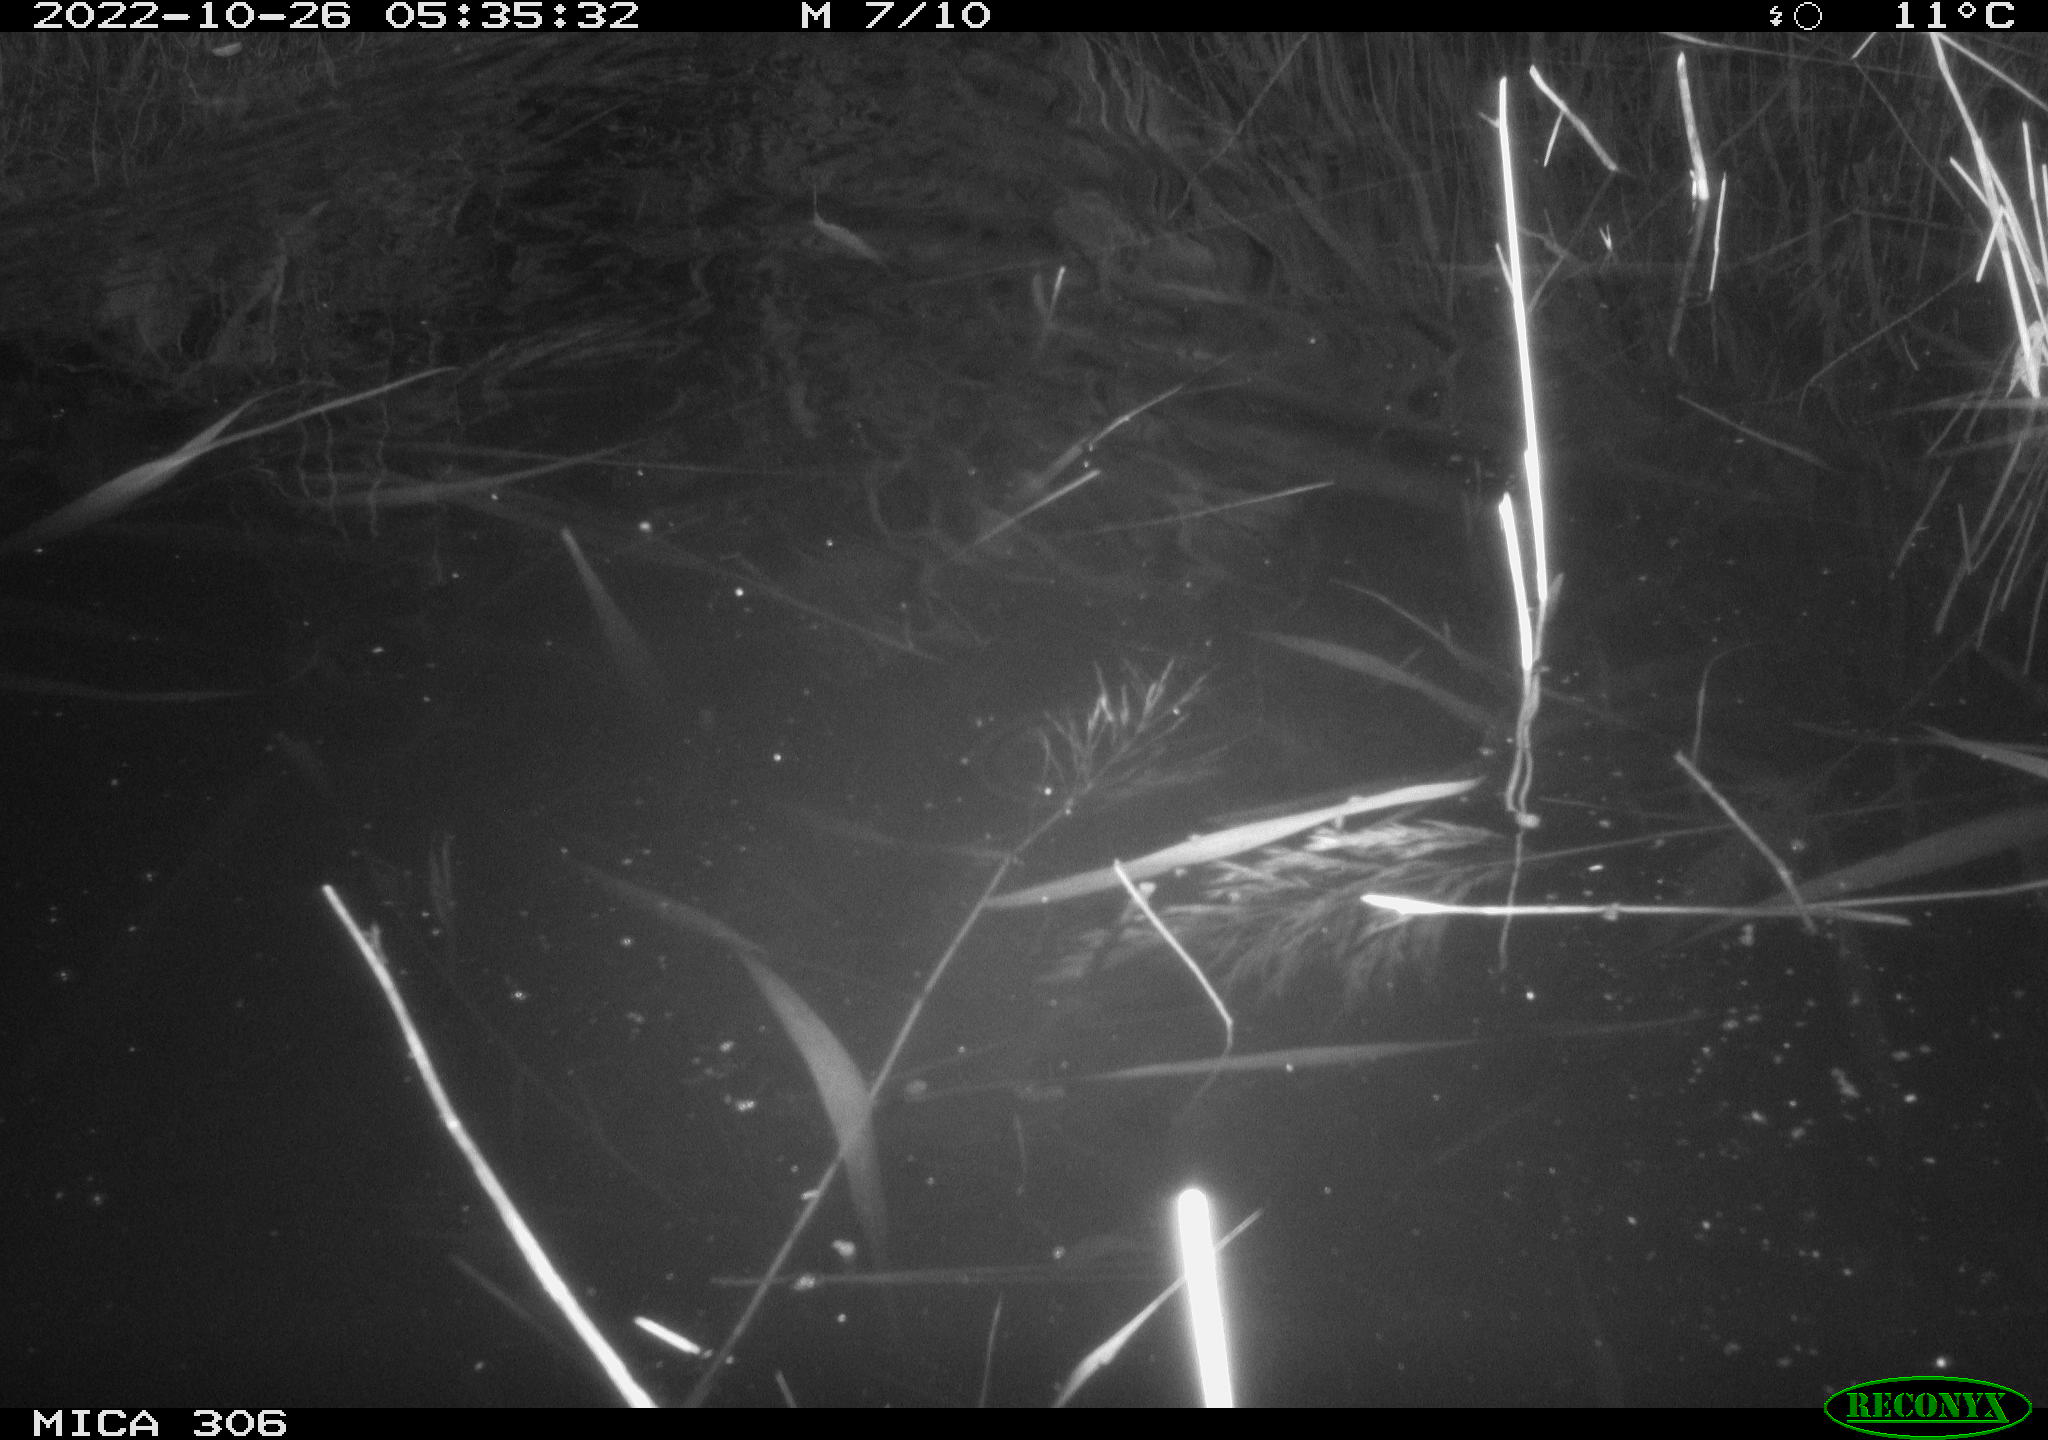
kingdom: Animalia
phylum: Chordata
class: Mammalia
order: Rodentia
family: Muridae
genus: Rattus
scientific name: Rattus norvegicus
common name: Brown rat
